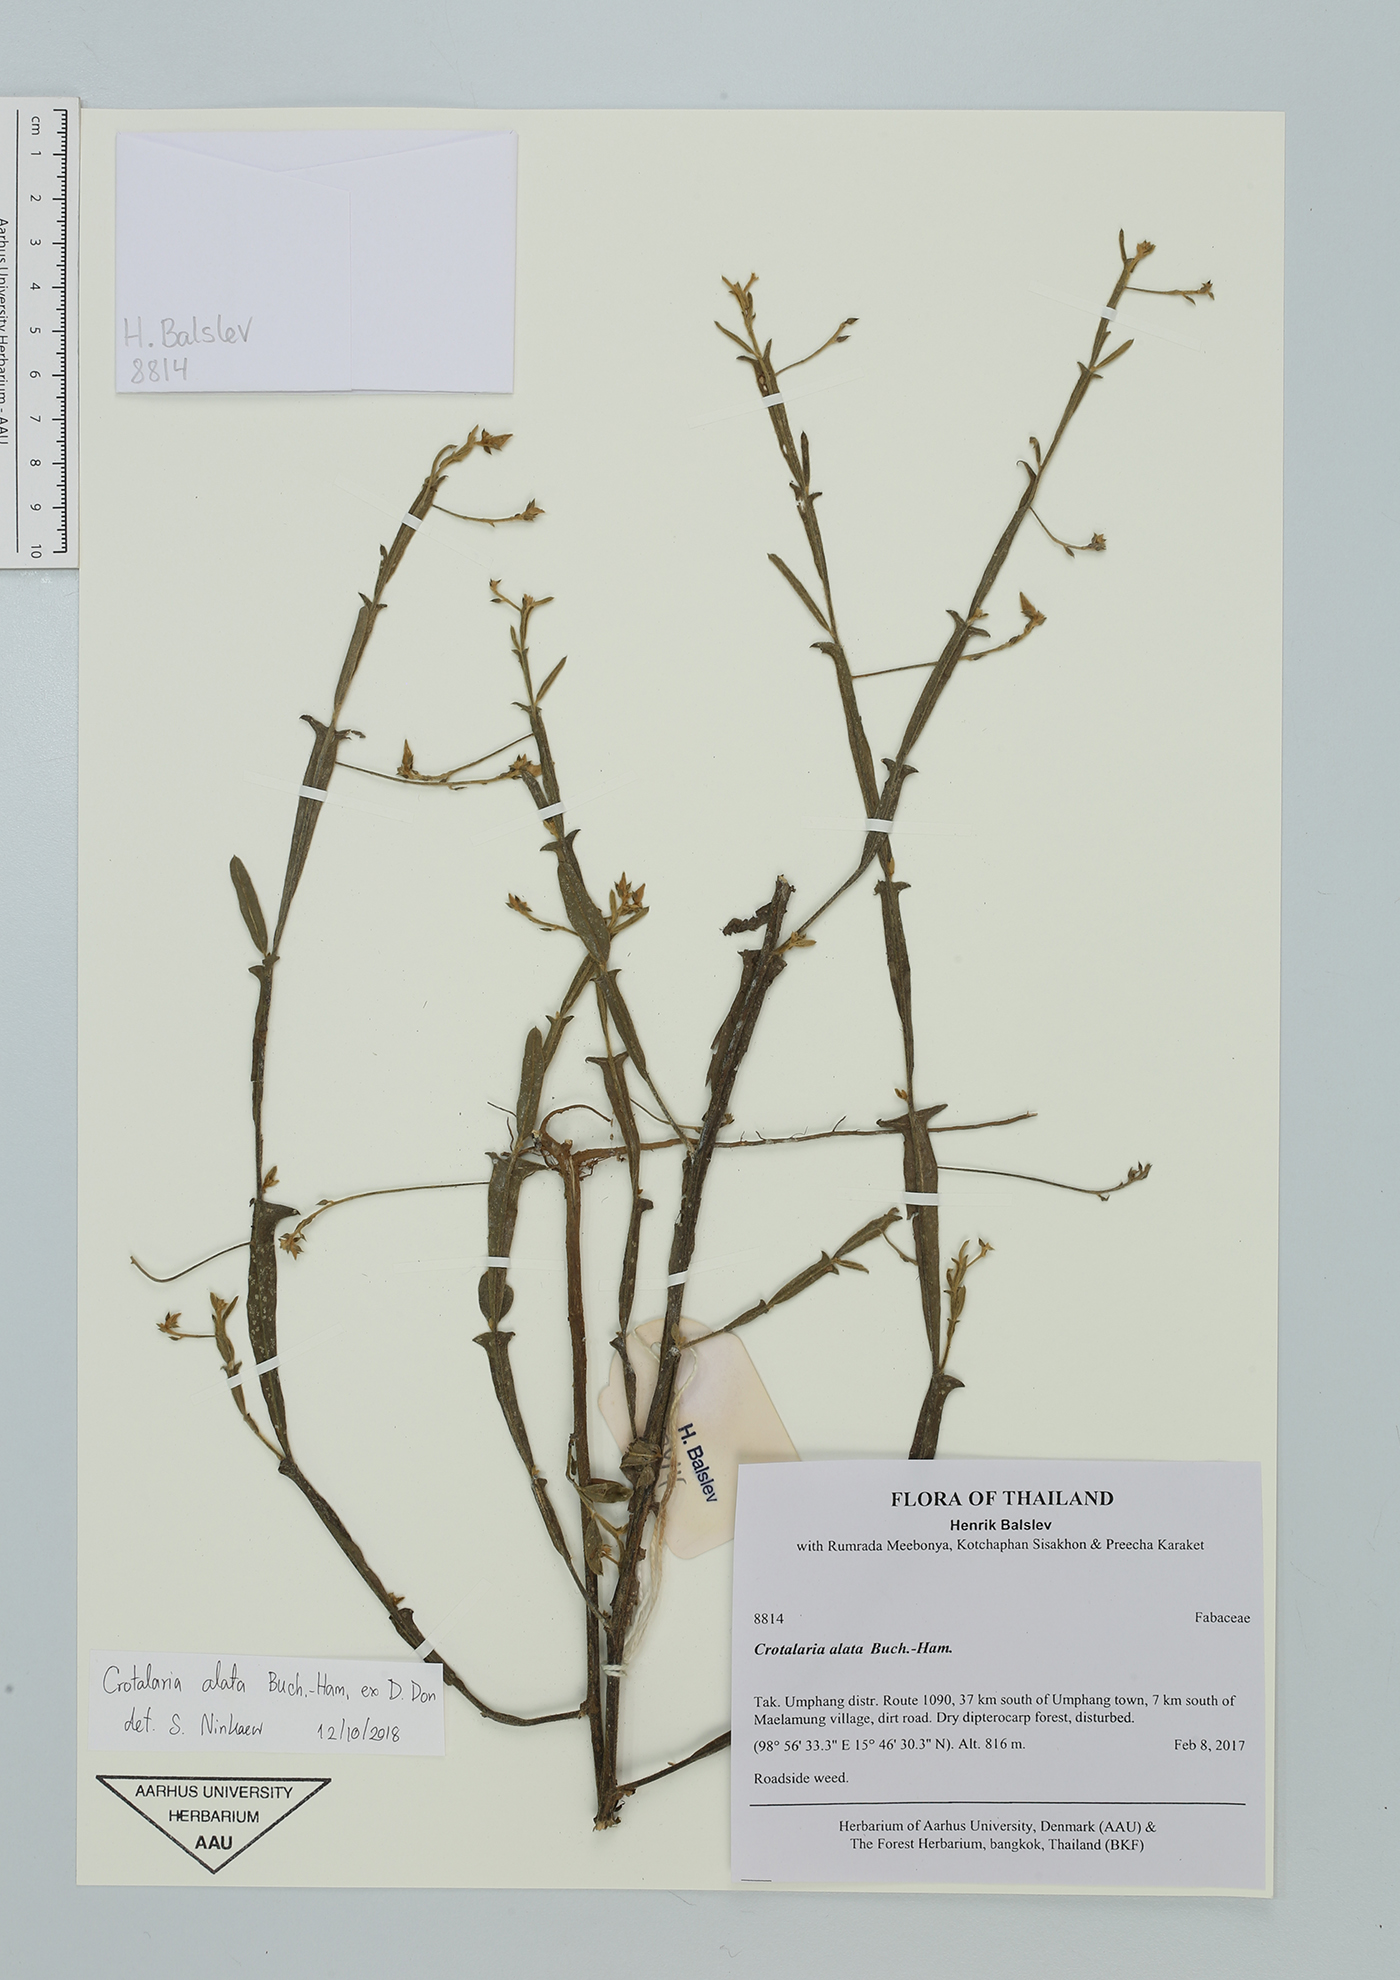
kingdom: Plantae
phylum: Tracheophyta
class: Magnoliopsida
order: Fabales
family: Fabaceae
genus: Crotalaria
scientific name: Crotalaria alata
